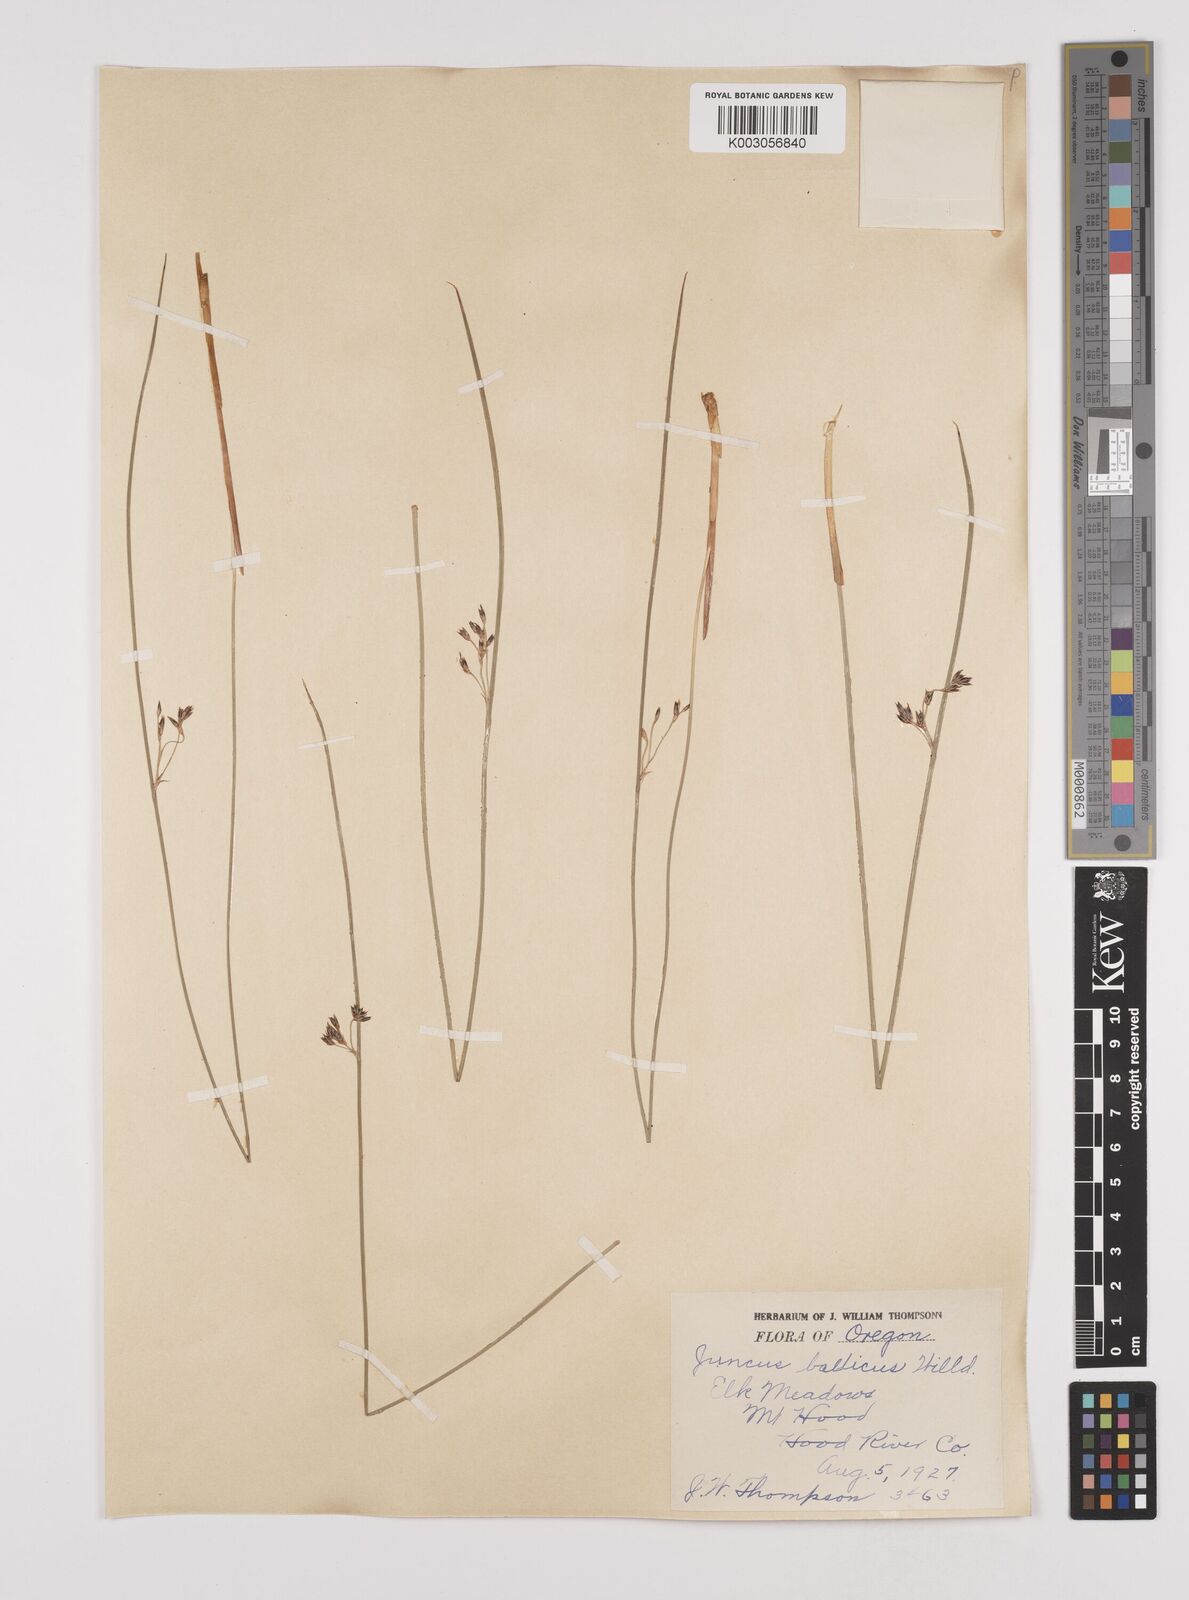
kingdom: Plantae
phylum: Tracheophyta
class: Liliopsida
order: Poales
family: Juncaceae
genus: Juncus
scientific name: Juncus balticus
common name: Baltic rush
